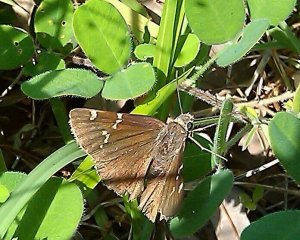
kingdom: Animalia
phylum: Arthropoda
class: Insecta
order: Lepidoptera
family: Hesperiidae
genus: Autochton
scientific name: Autochton
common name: Southern Cloudywing
